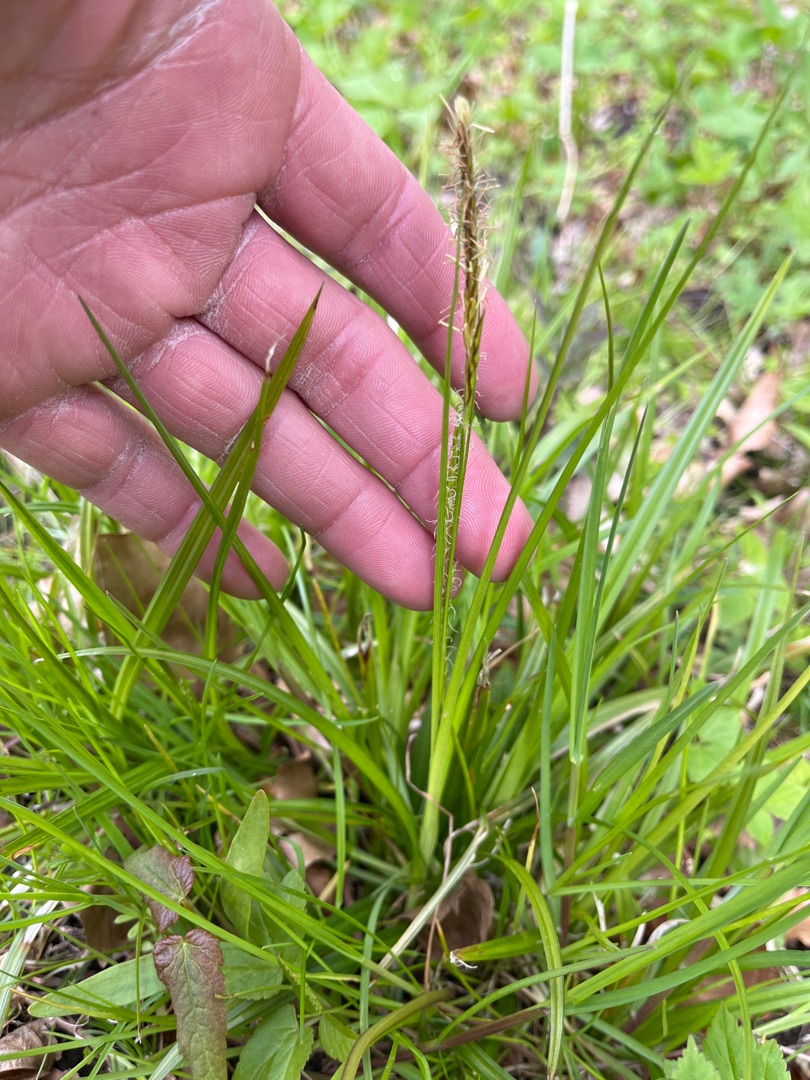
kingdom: Plantae
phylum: Tracheophyta
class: Liliopsida
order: Poales
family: Cyperaceae
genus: Carex
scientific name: Carex sylvatica
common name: Skov-star
